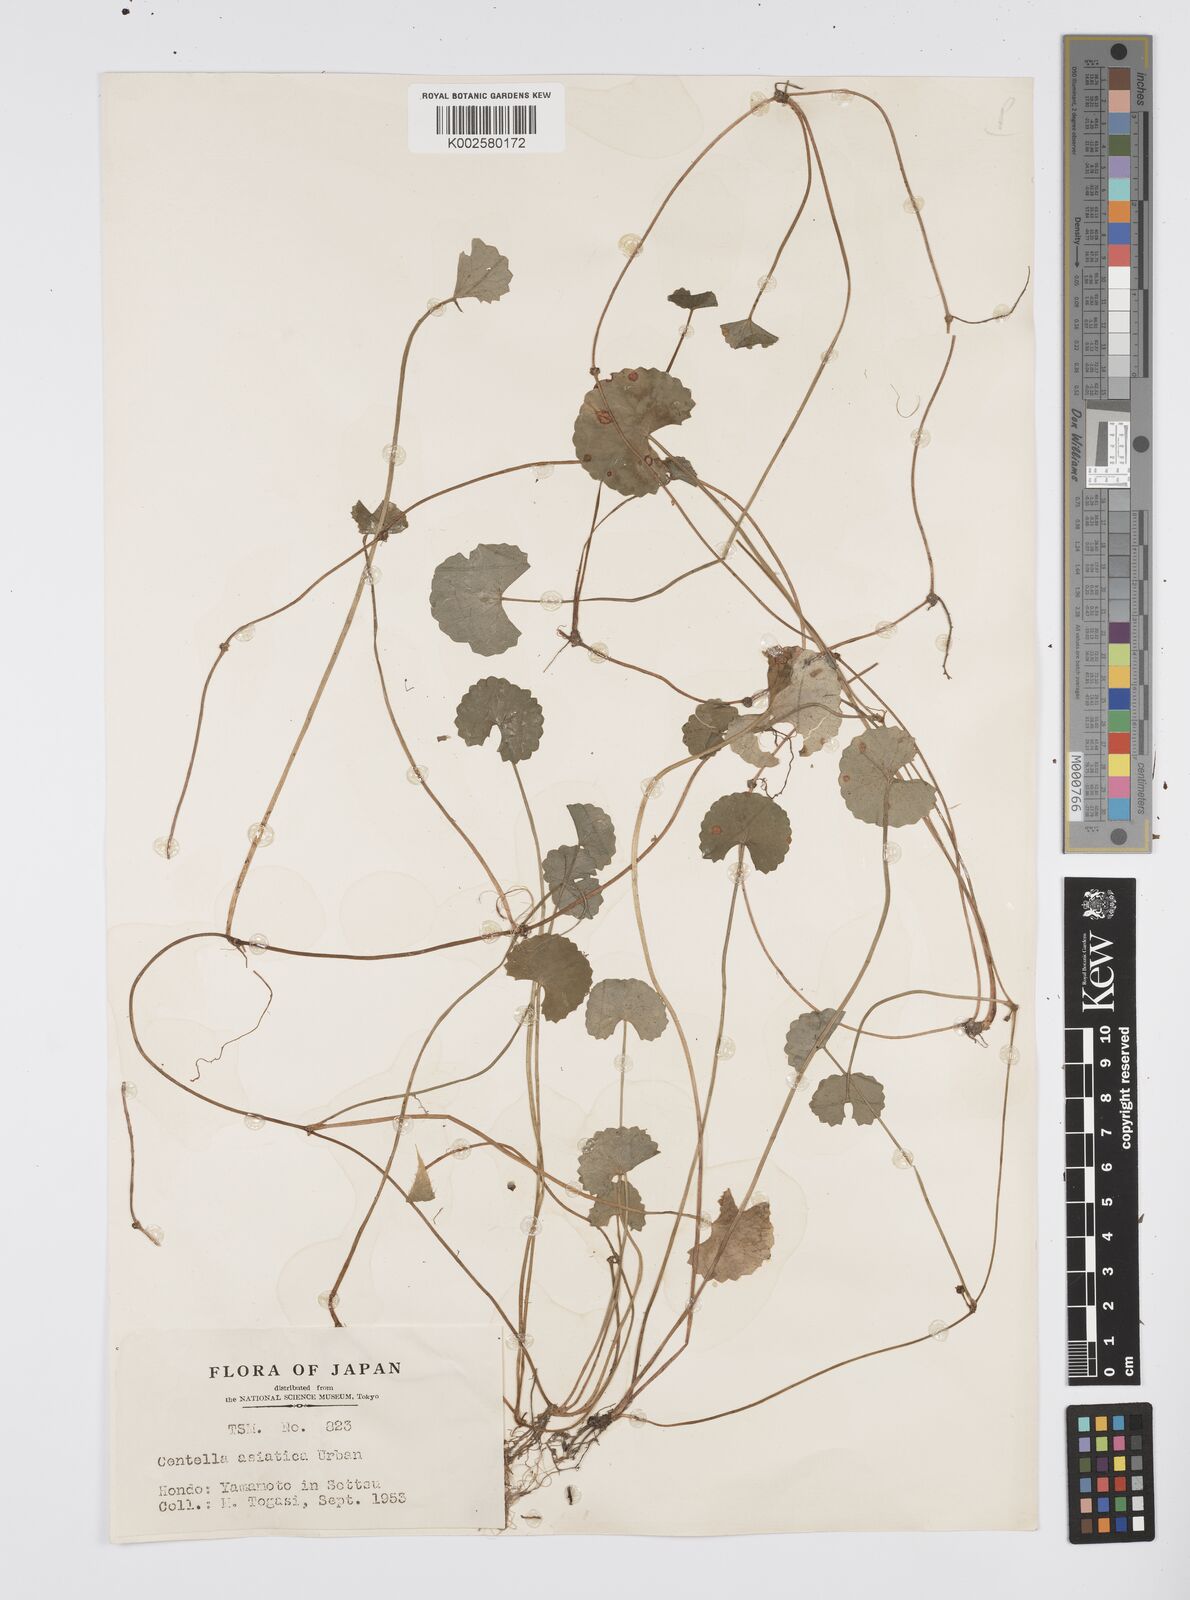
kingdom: Plantae
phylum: Tracheophyta
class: Magnoliopsida
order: Apiales
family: Apiaceae
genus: Centella
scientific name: Centella asiatica
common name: Spadeleaf
